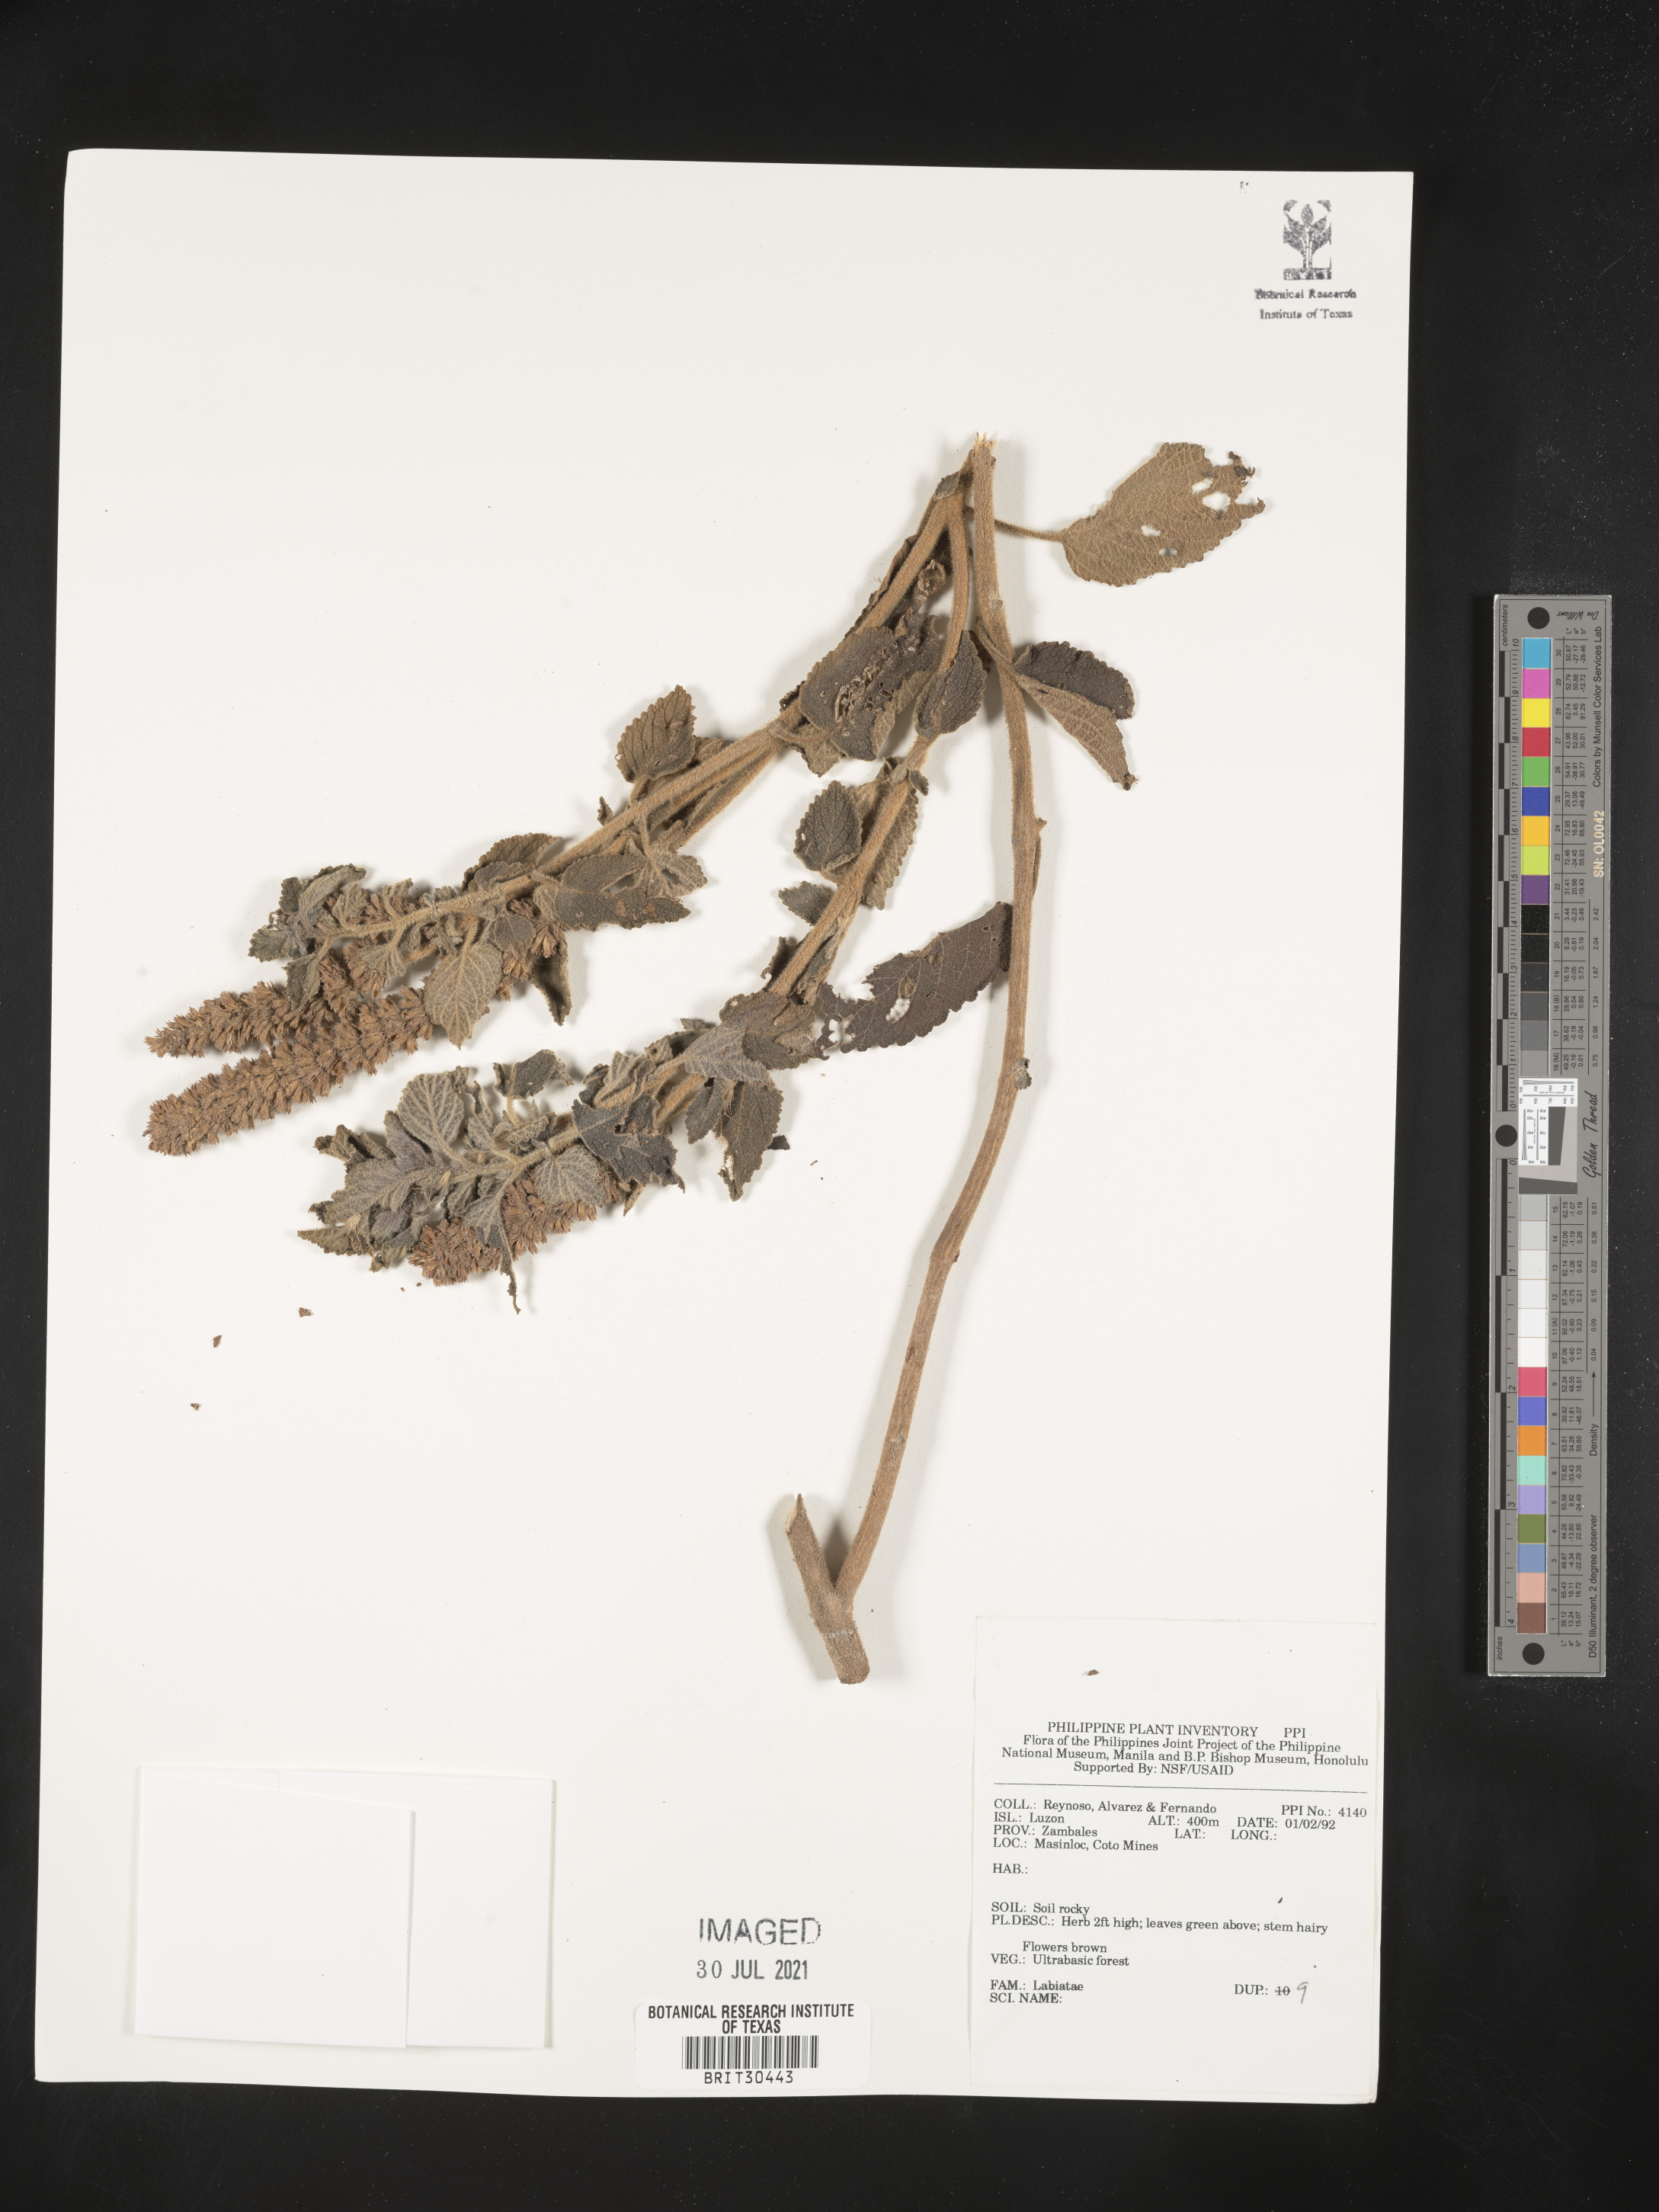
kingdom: Plantae
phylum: Tracheophyta
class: Magnoliopsida
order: Lamiales
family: Lamiaceae
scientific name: Lamiaceae
